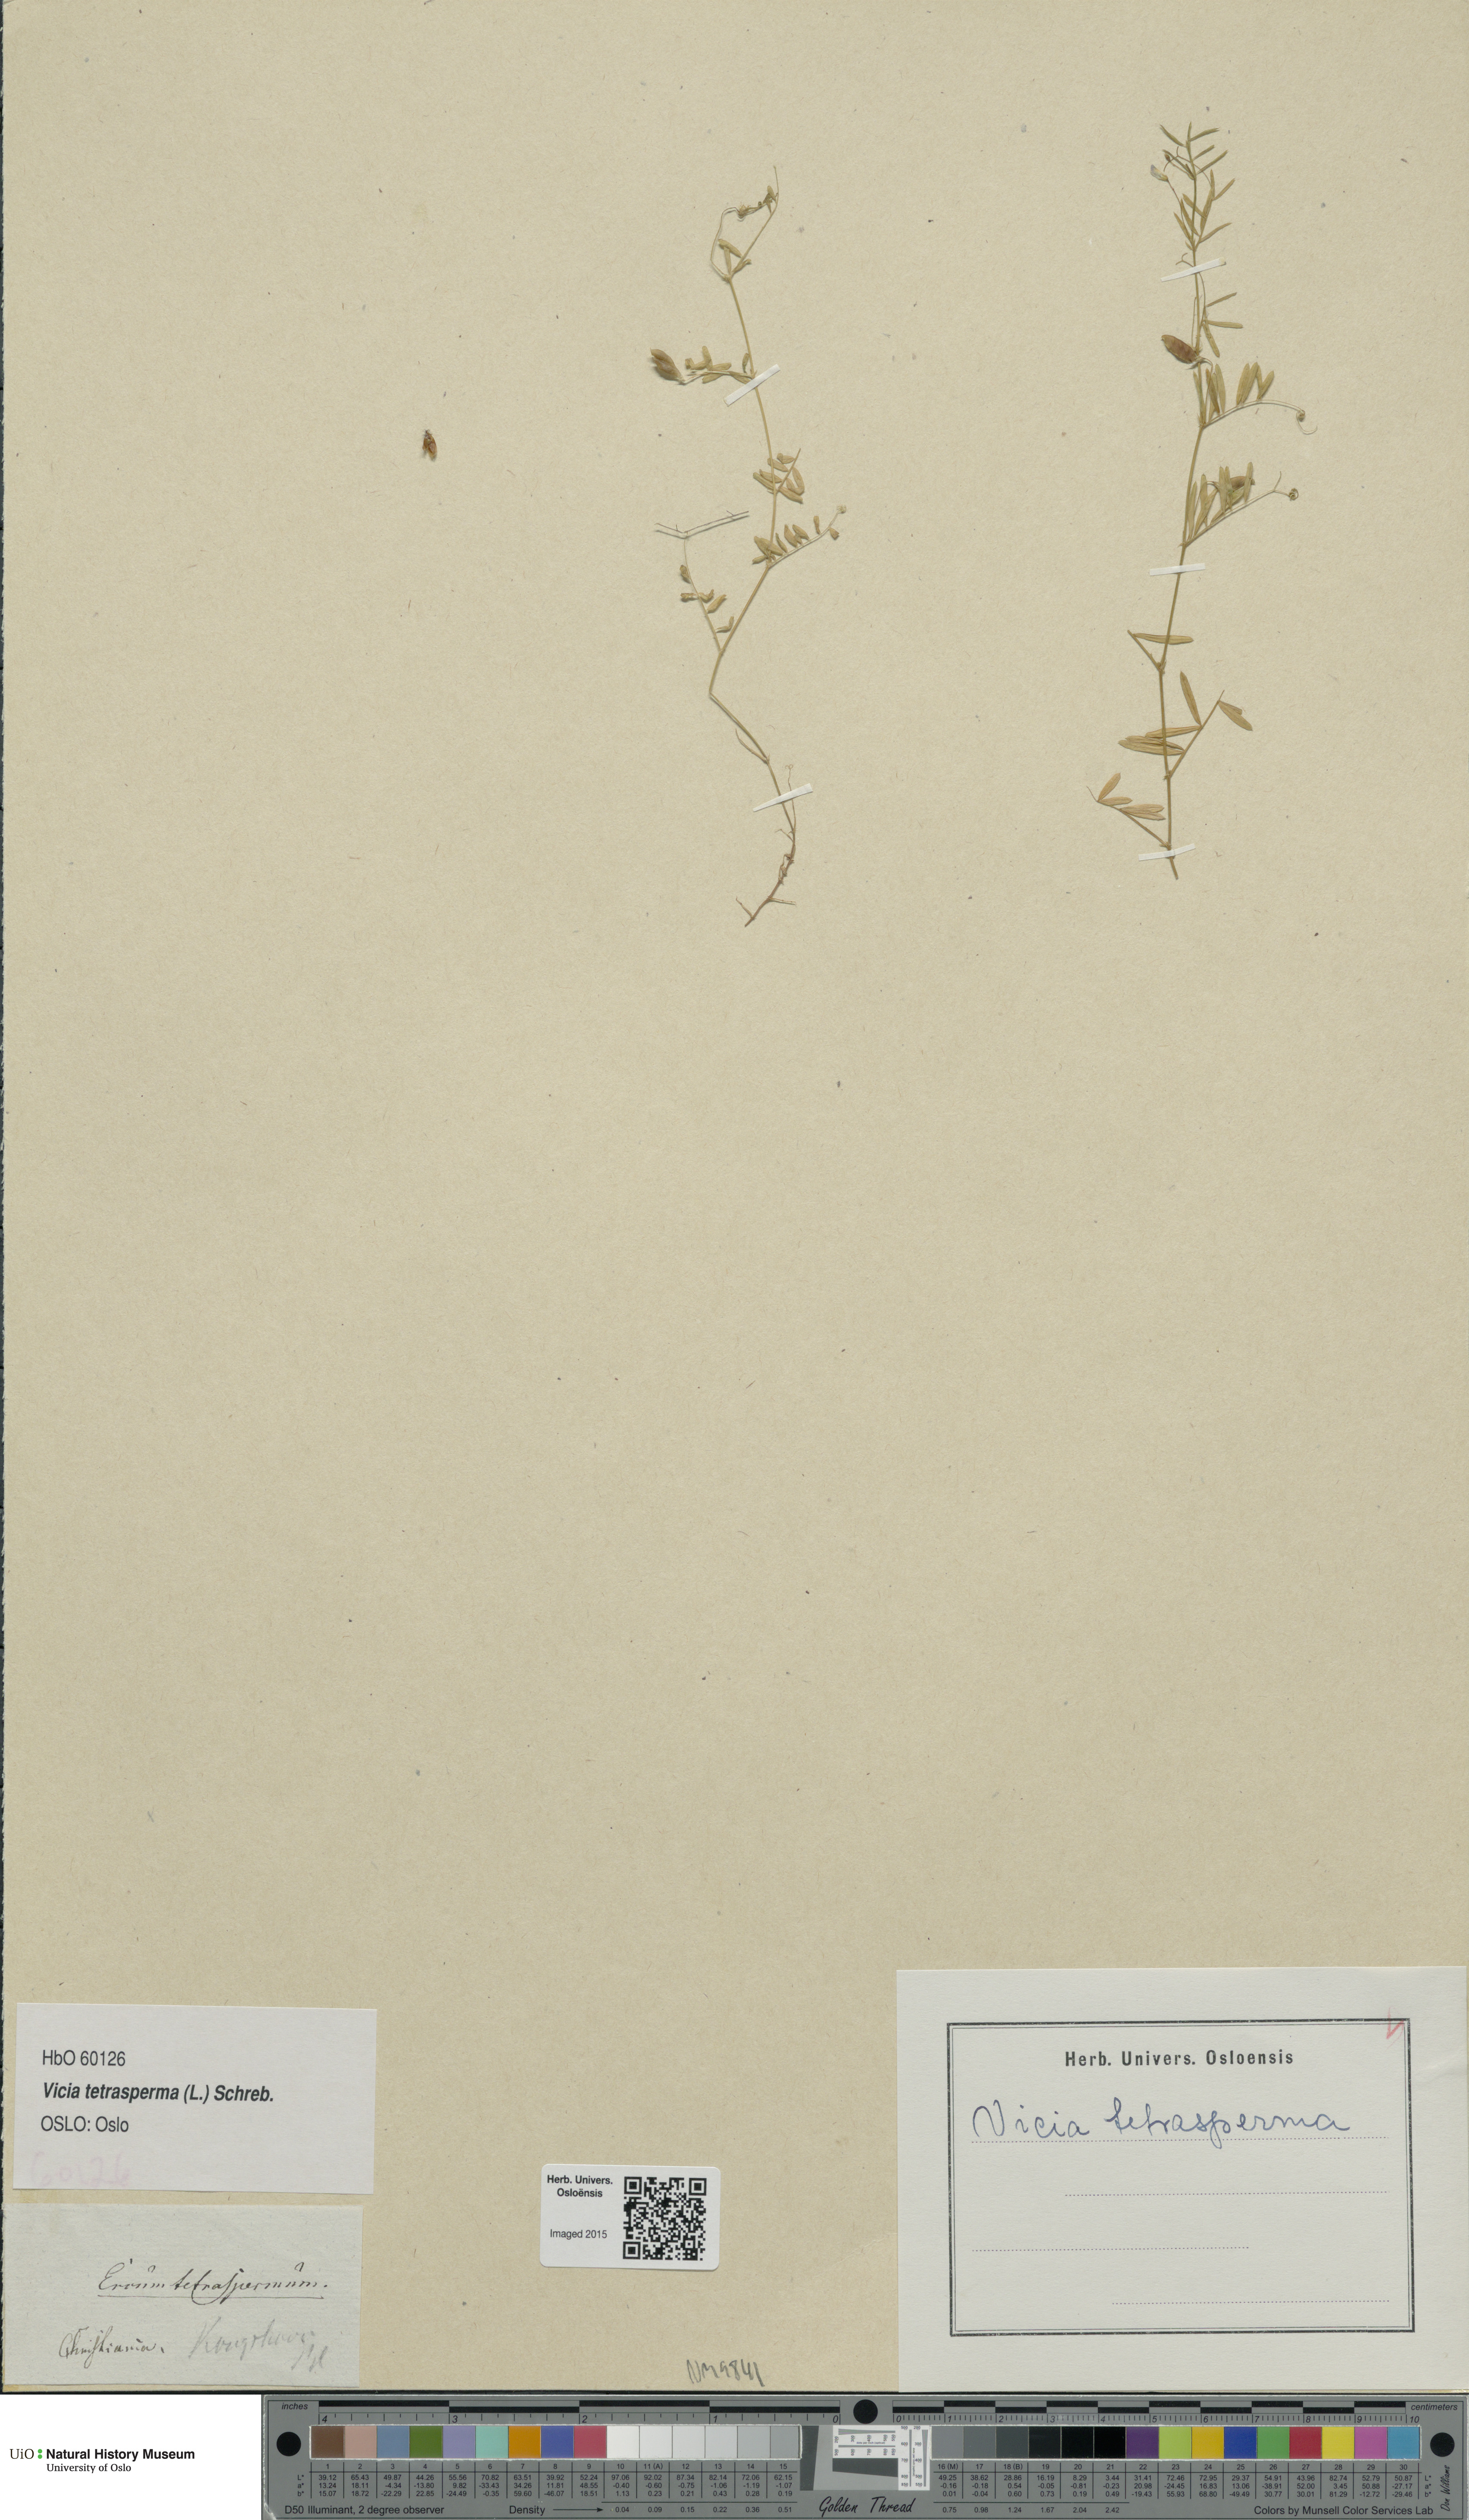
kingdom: Plantae
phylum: Tracheophyta
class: Magnoliopsida
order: Fabales
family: Fabaceae
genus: Vicia
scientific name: Vicia tetrasperma
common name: Smooth tare
